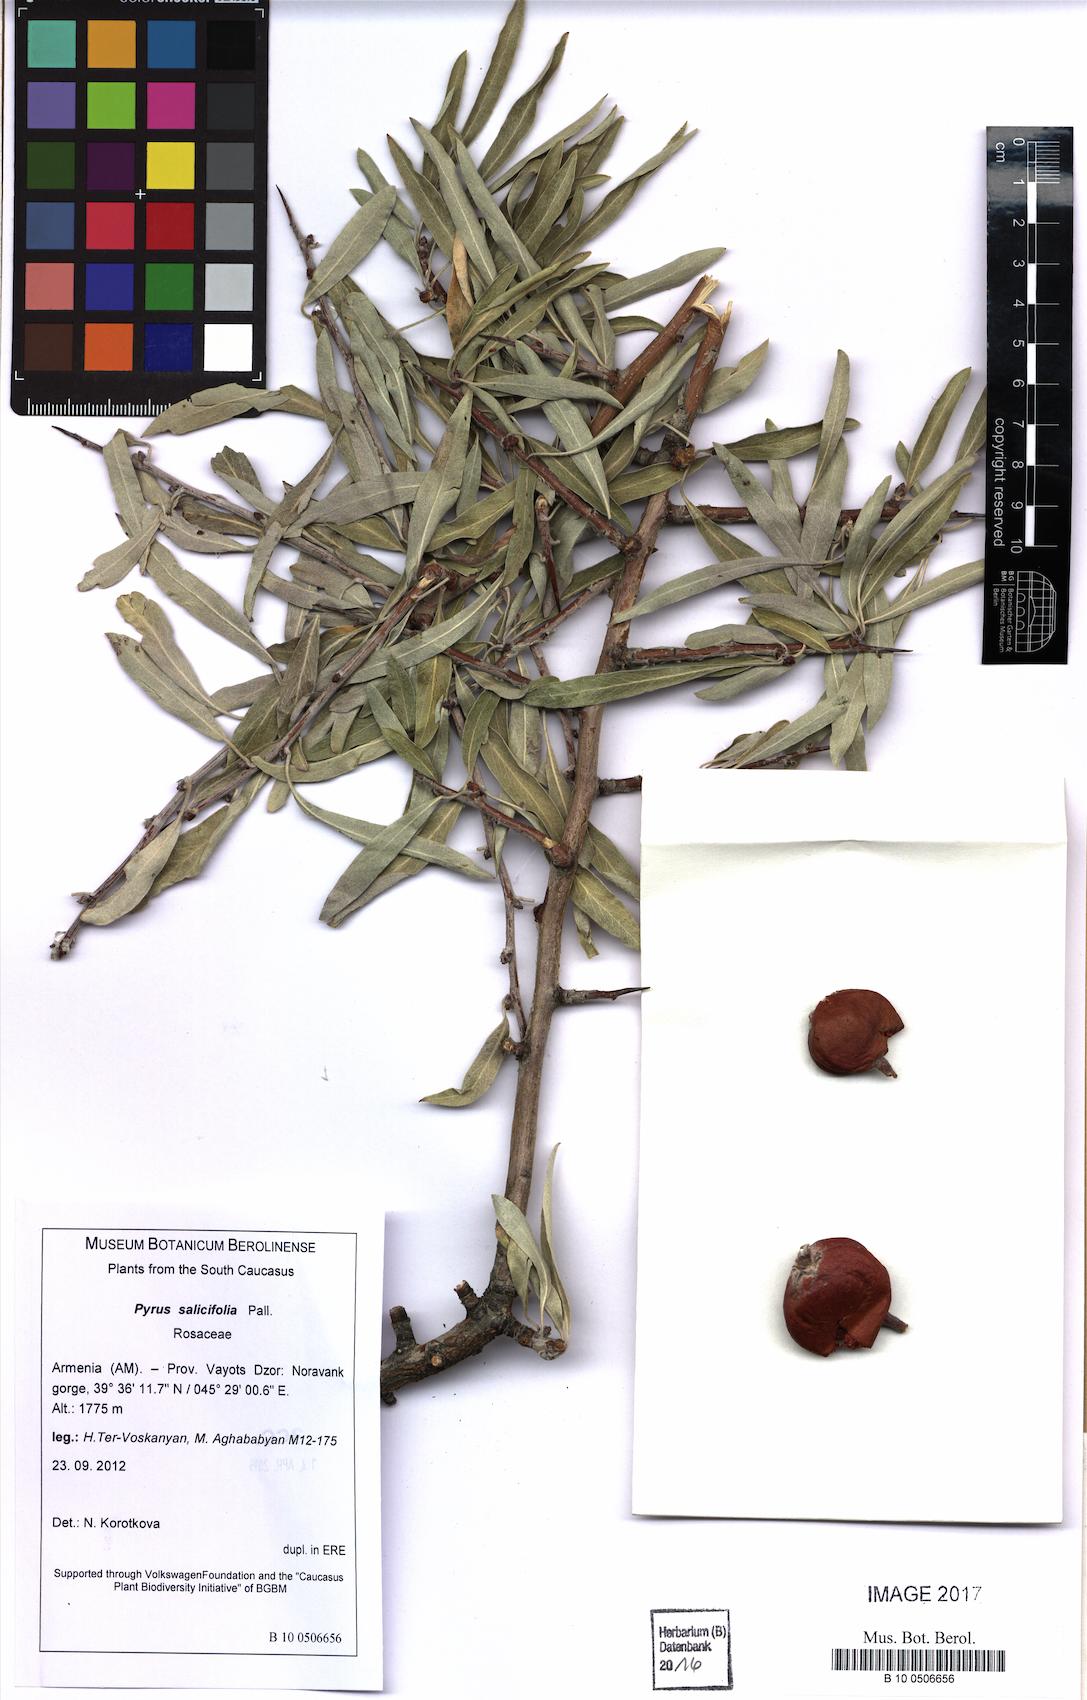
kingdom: Plantae
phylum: Tracheophyta
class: Magnoliopsida
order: Rosales
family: Rosaceae
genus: Pyrus
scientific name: Pyrus salicifolia
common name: Willow-leaved pear
